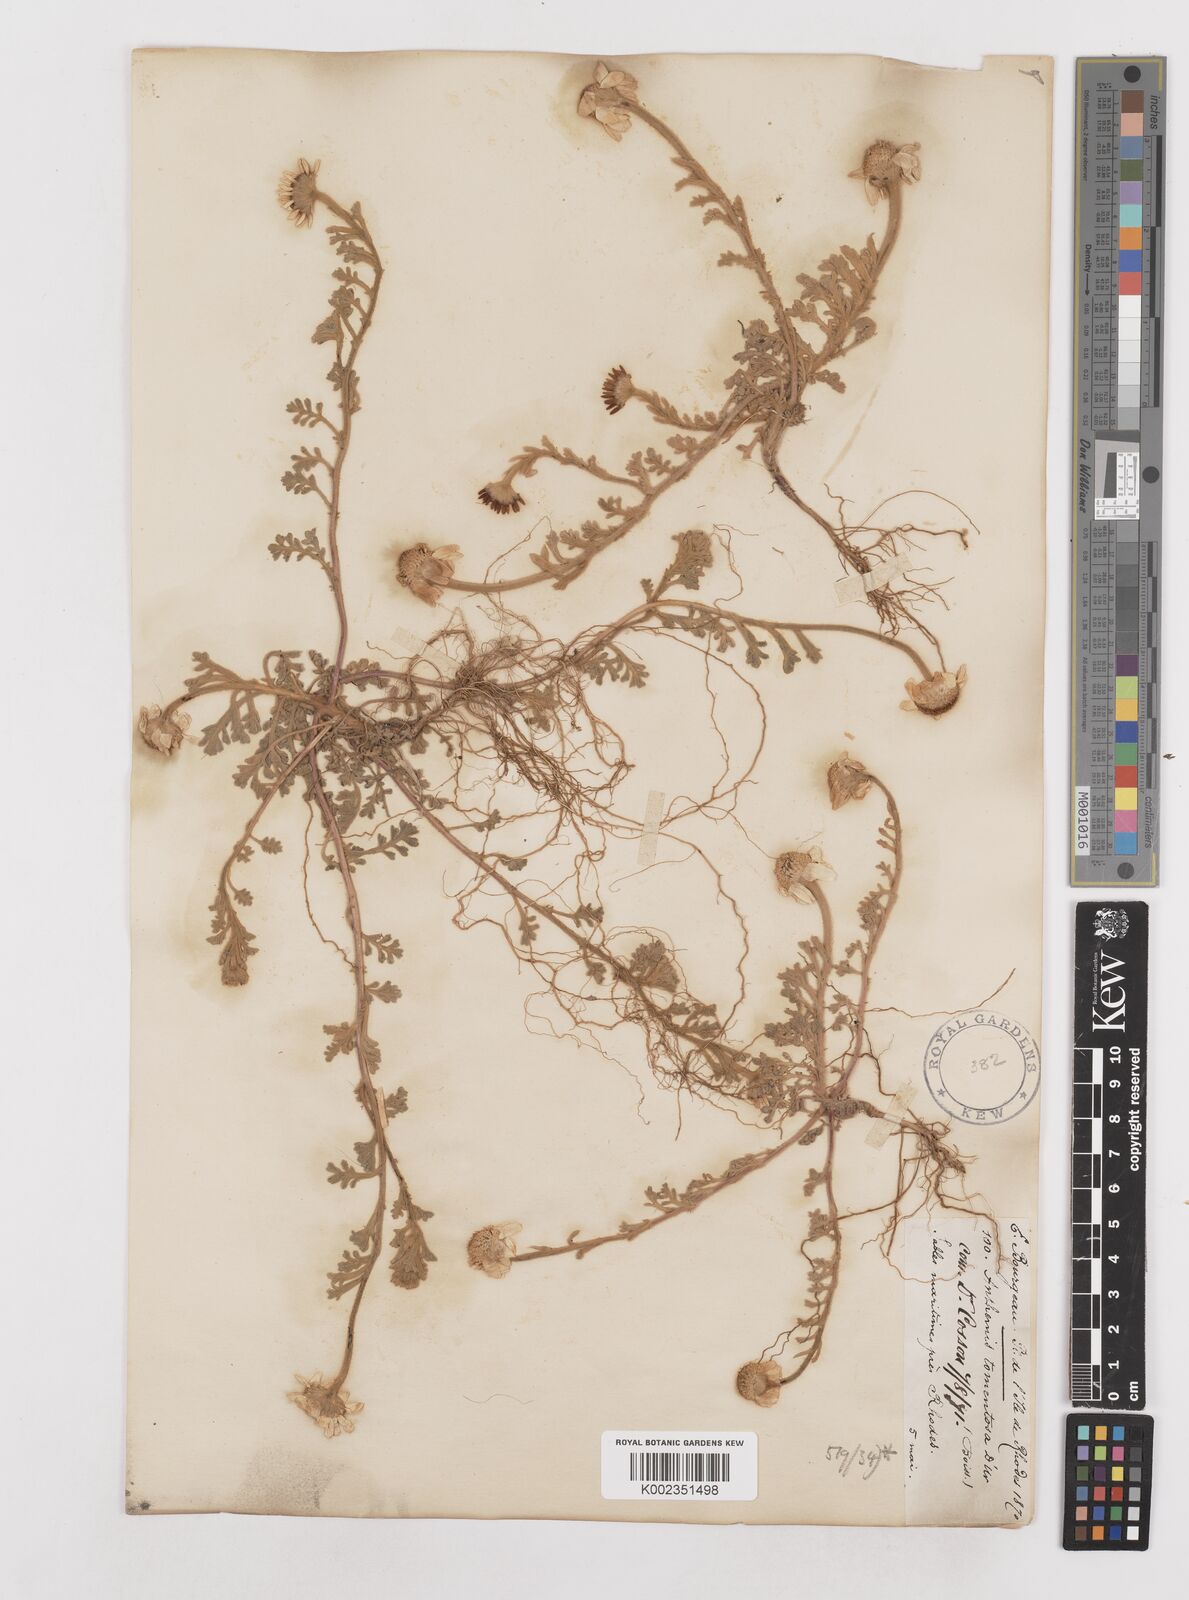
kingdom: Plantae
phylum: Tracheophyta
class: Magnoliopsida
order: Asterales
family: Asteraceae
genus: Anthemis
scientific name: Anthemis tomentosa
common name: Woolly chamomile
